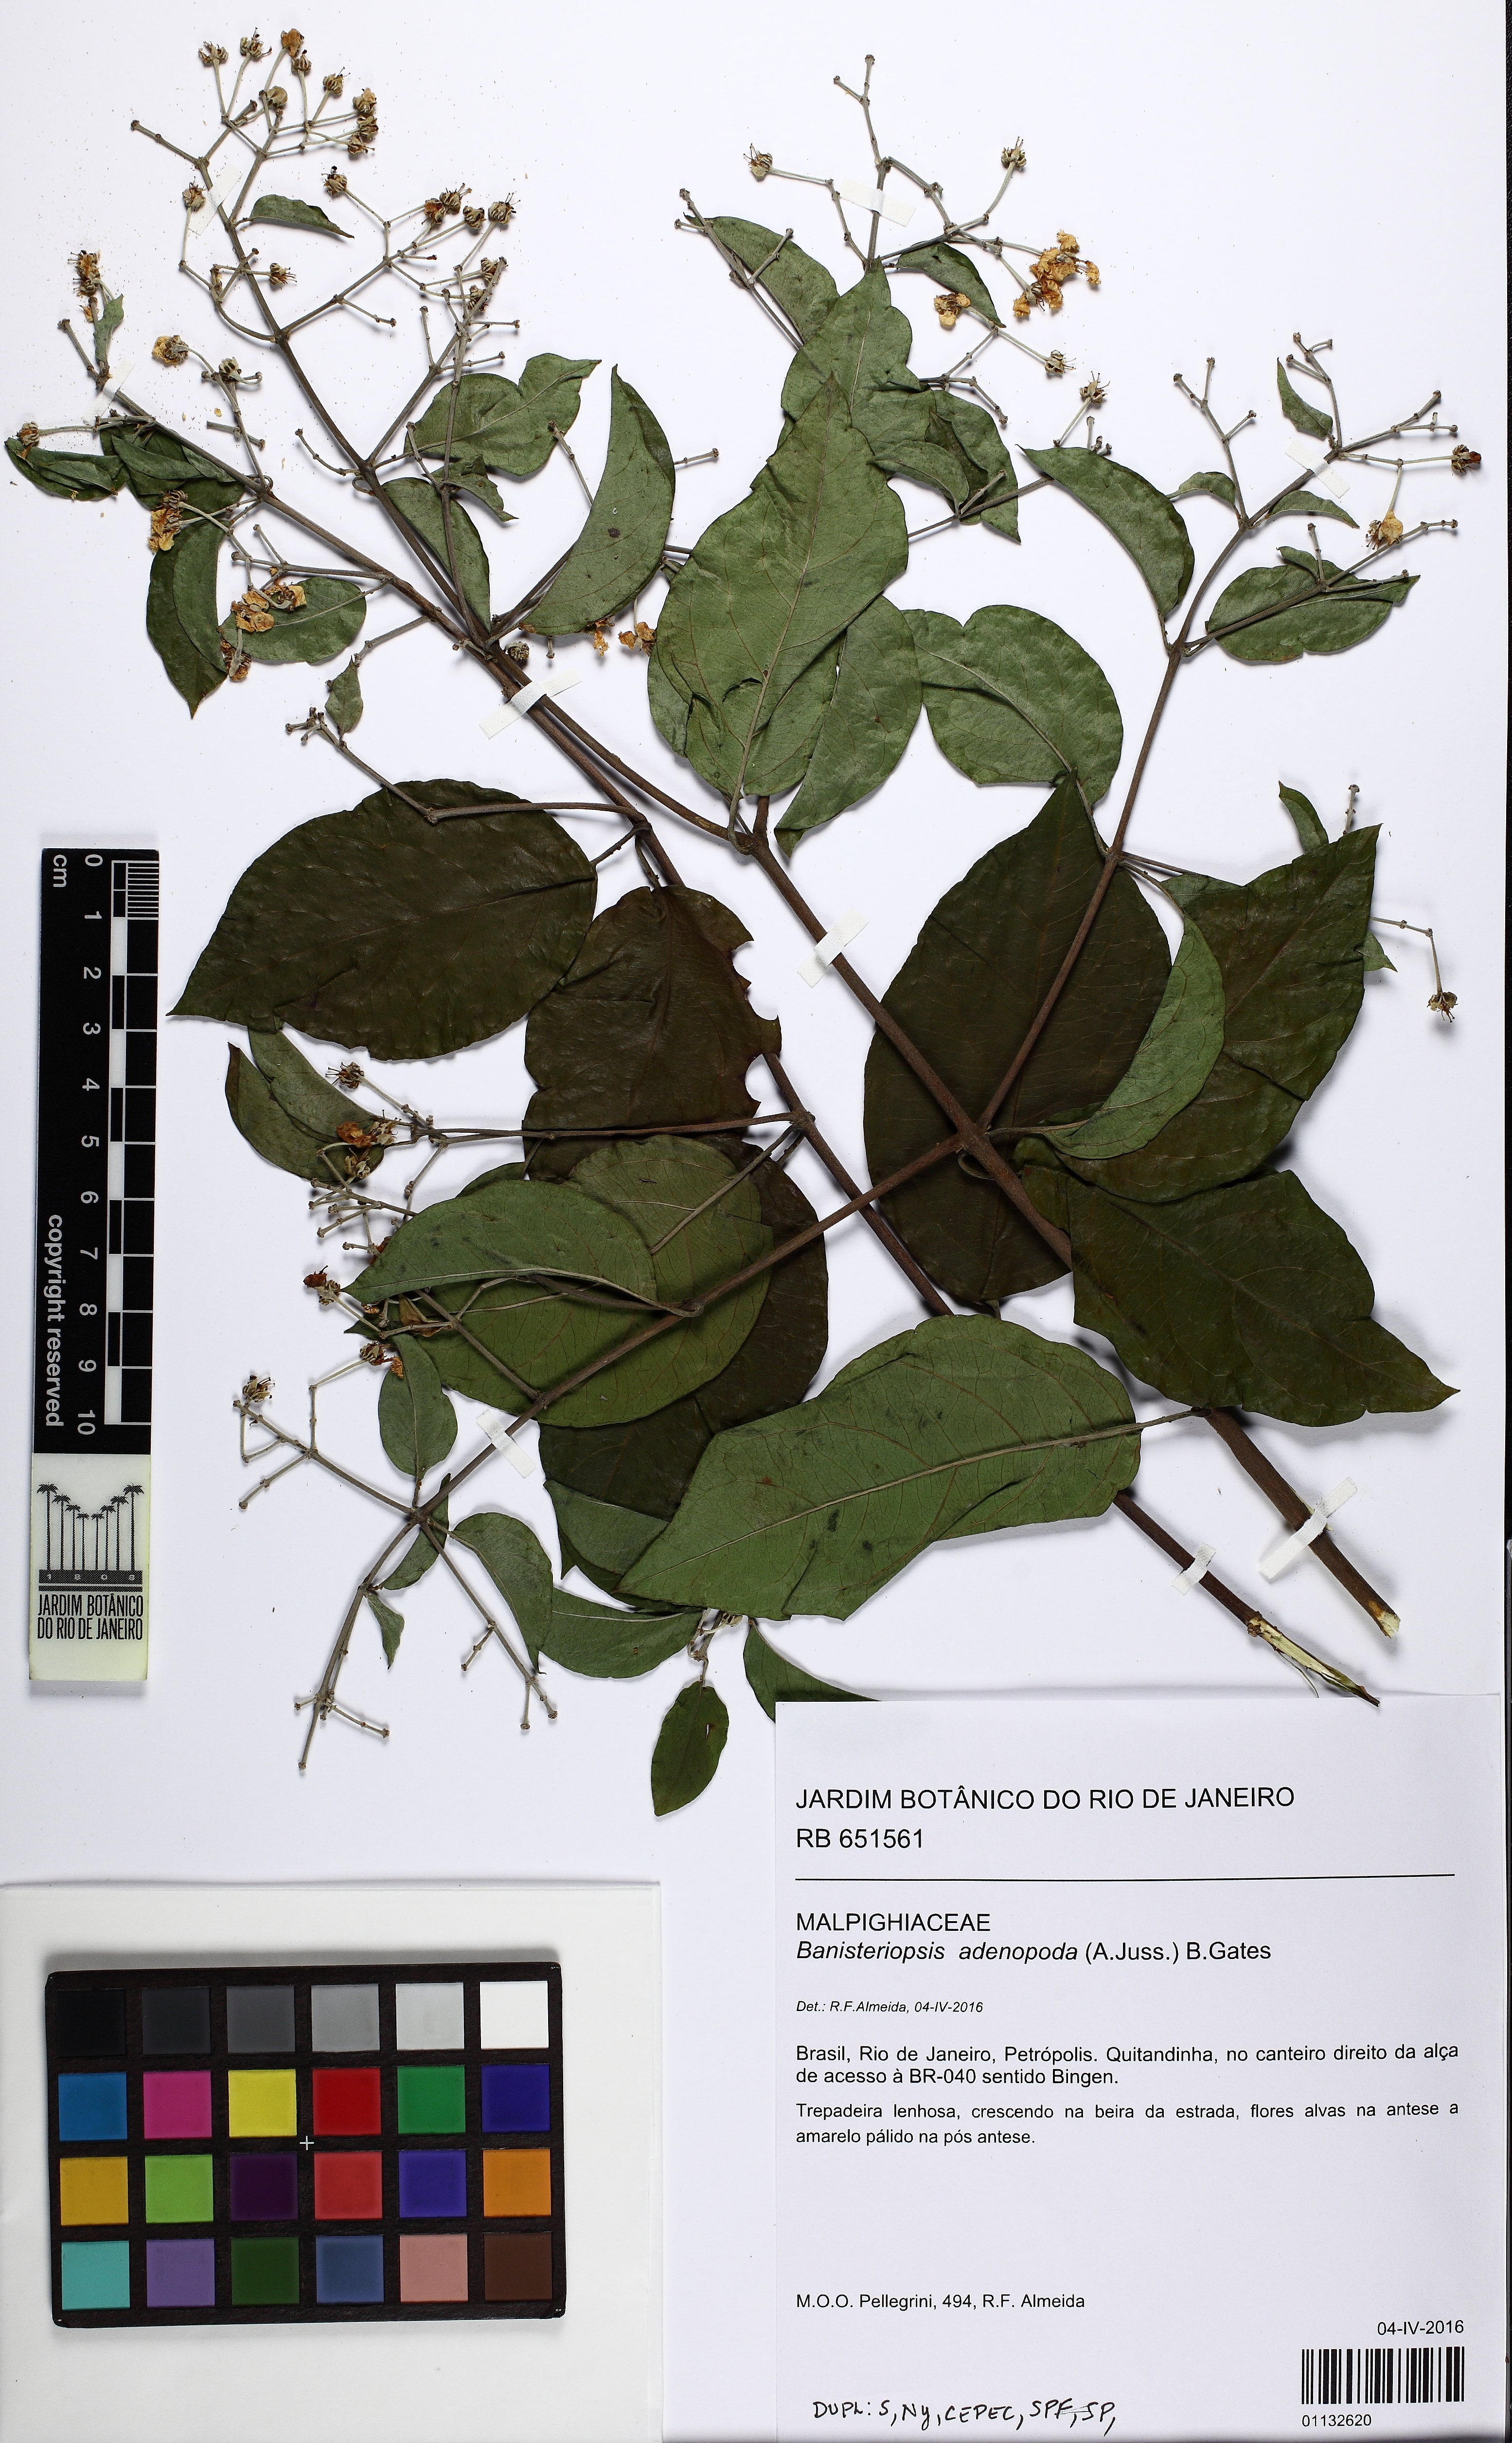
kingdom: Plantae
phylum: Tracheophyta
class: Magnoliopsida
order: Malpighiales
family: Malpighiaceae
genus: Banisteriopsis
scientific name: Banisteriopsis adenopoda
